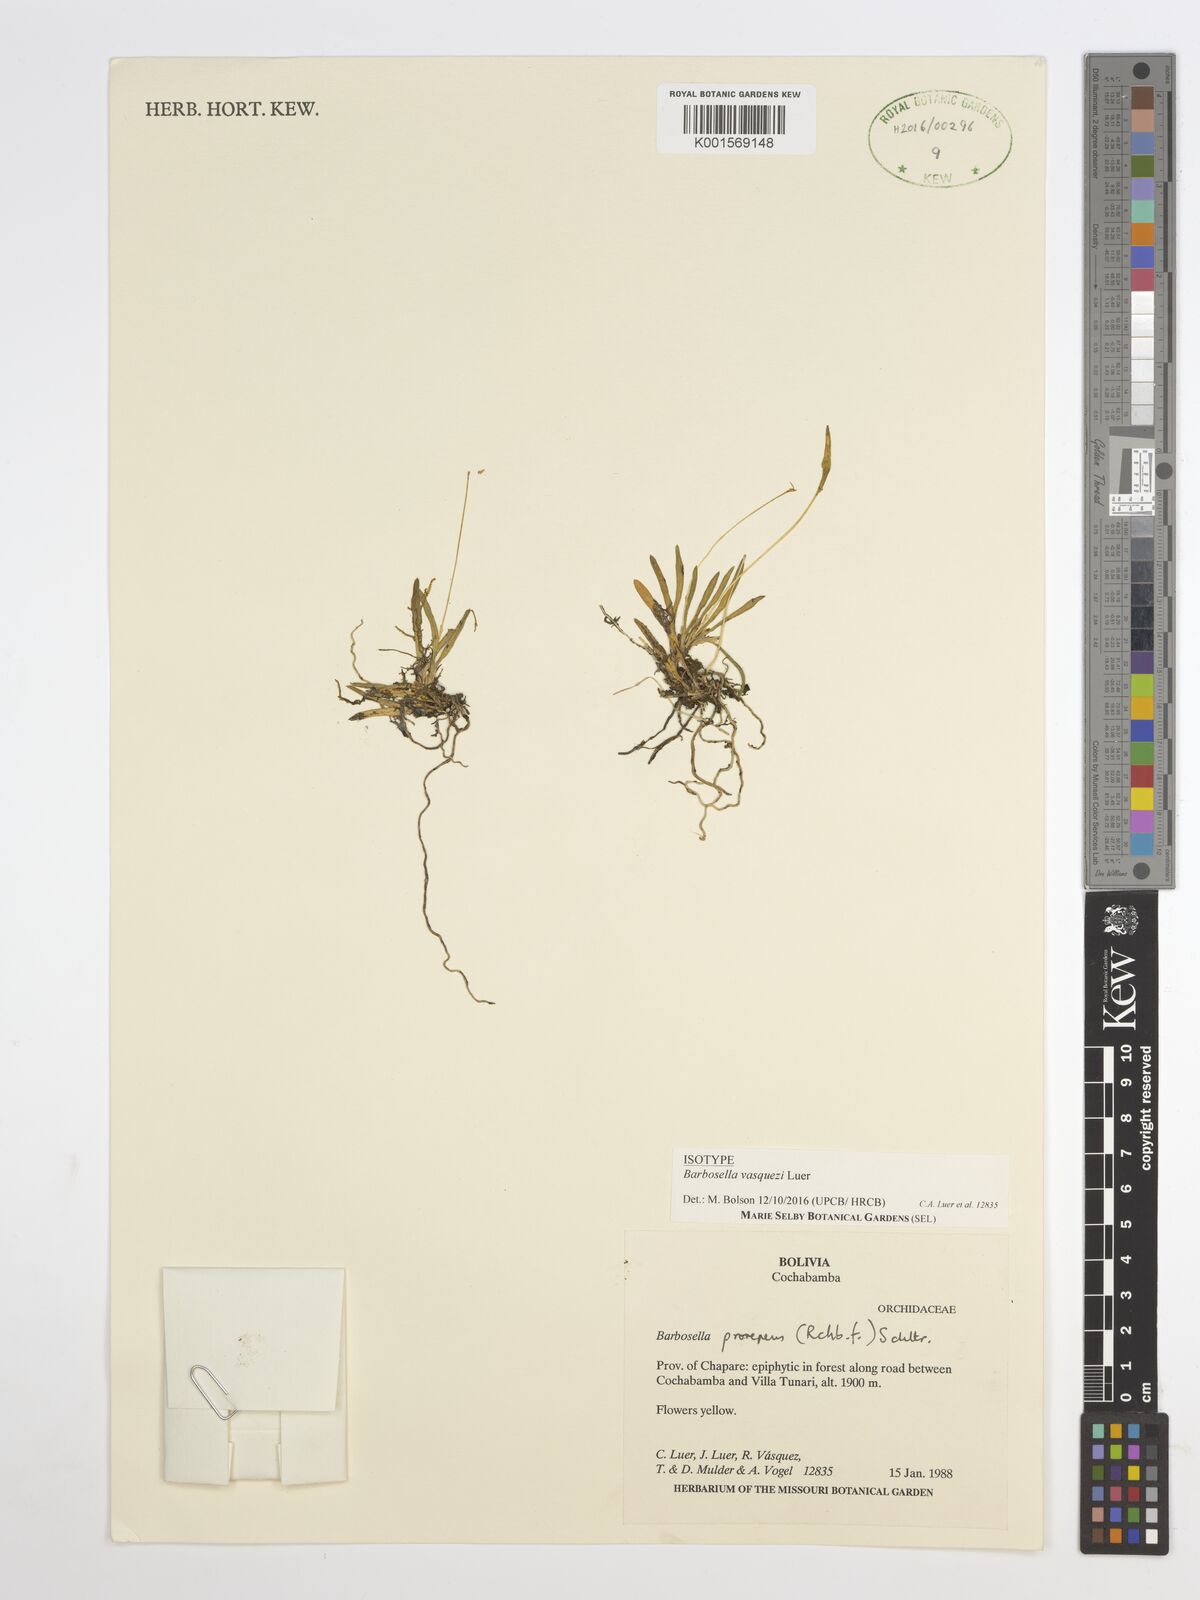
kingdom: Plantae
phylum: Tracheophyta
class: Liliopsida
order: Asparagales
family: Orchidaceae
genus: Barbosella
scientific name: Barbosella vasquezii
